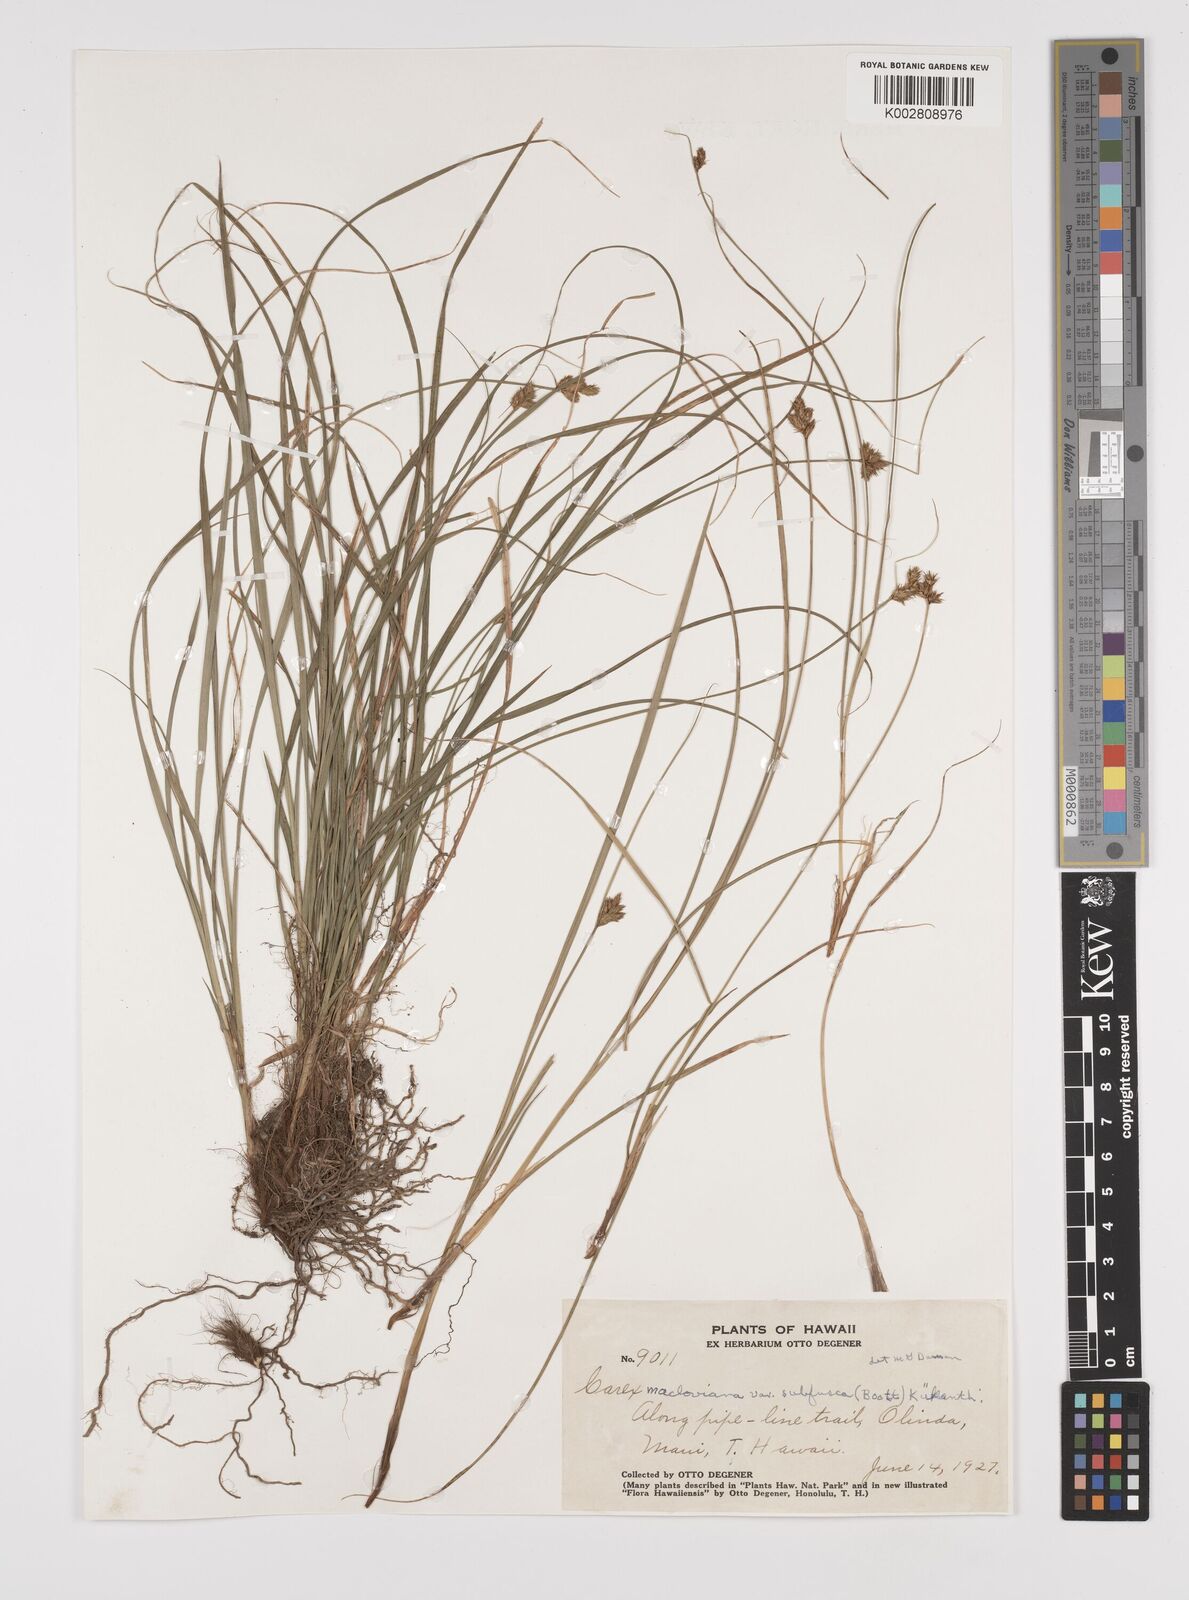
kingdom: Plantae
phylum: Tracheophyta
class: Liliopsida
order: Poales
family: Cyperaceae
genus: Carex
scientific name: Carex subfusca
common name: Brown sedge
